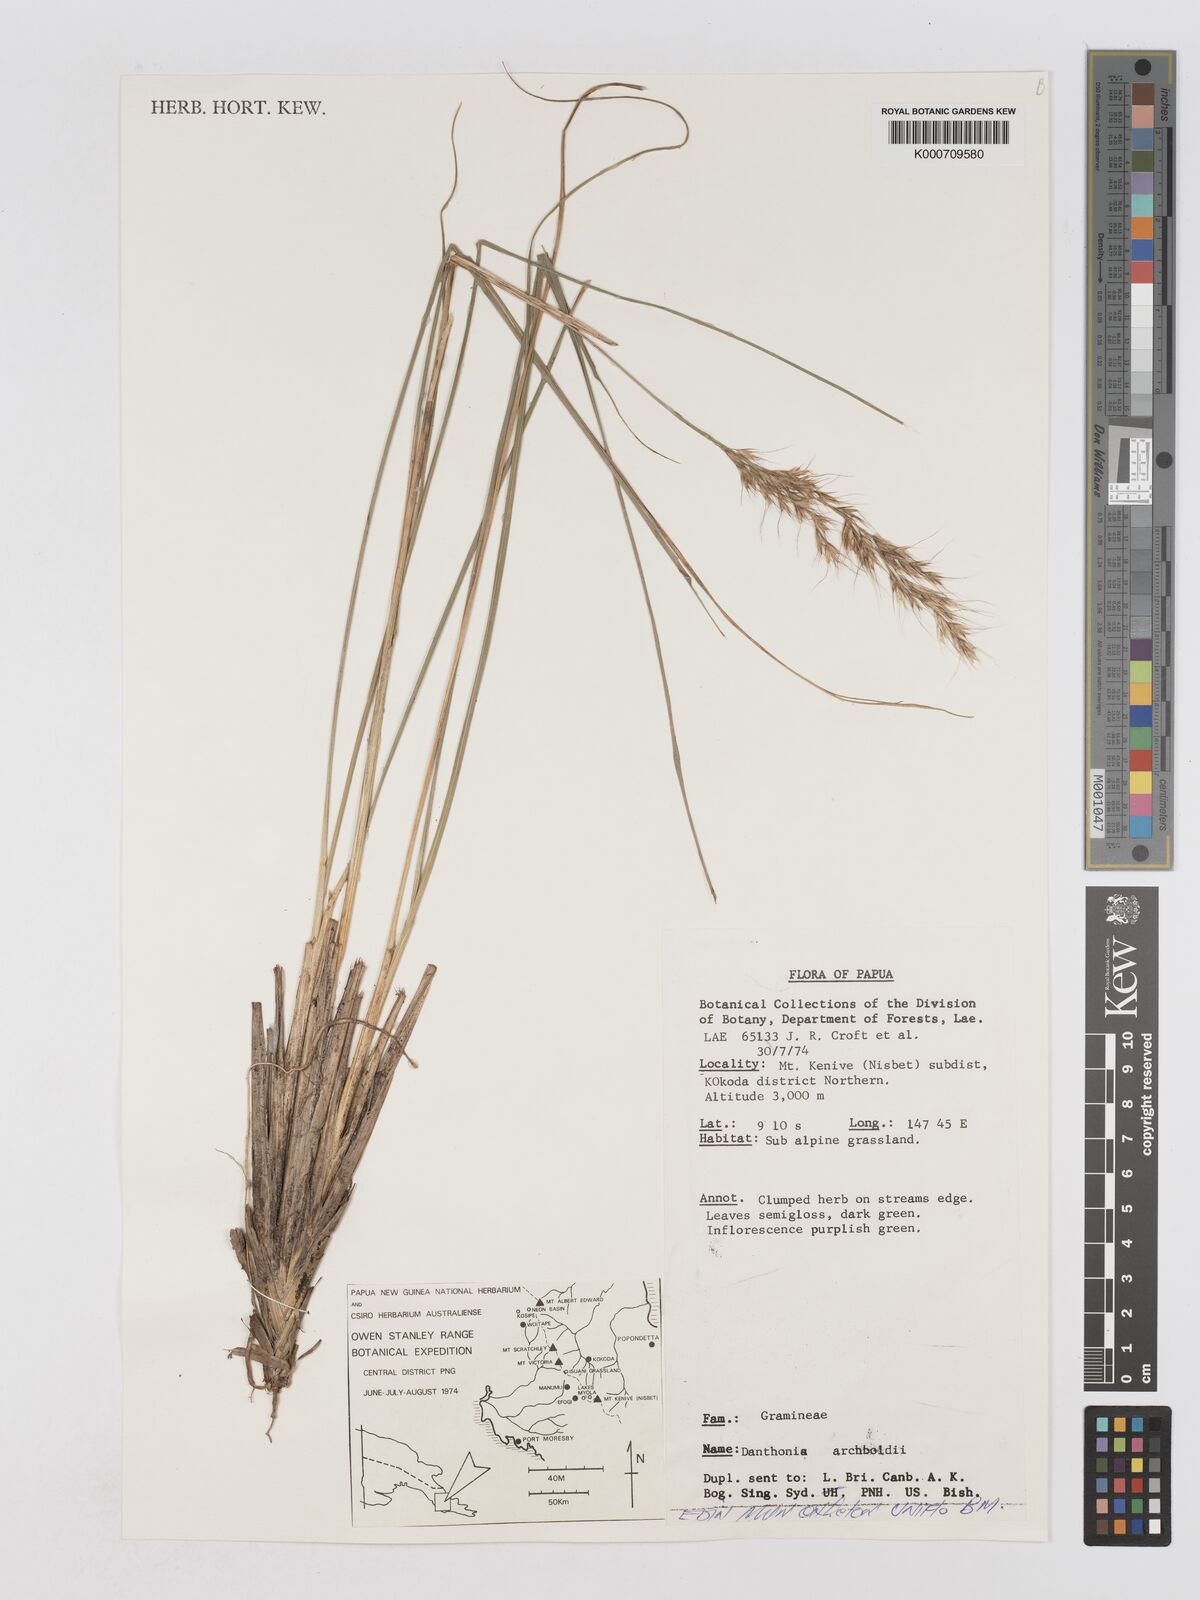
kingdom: Plantae
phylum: Tracheophyta
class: Liliopsida
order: Poales
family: Poaceae
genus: Chimaerochloa
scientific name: Chimaerochloa archboldii
